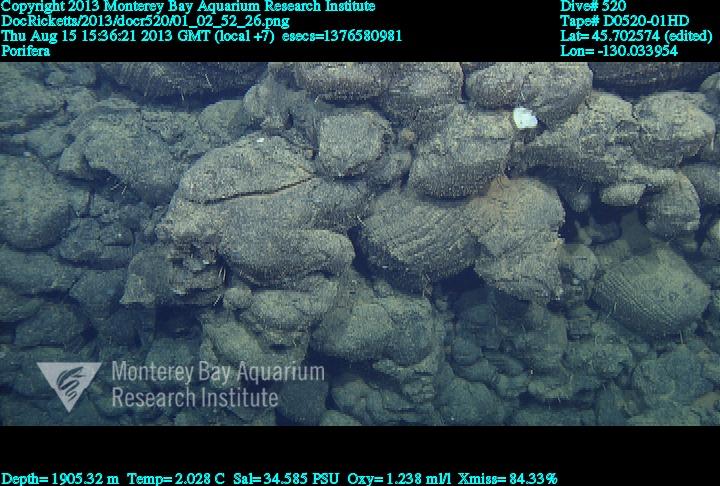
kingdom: Animalia
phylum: Porifera
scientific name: Porifera
